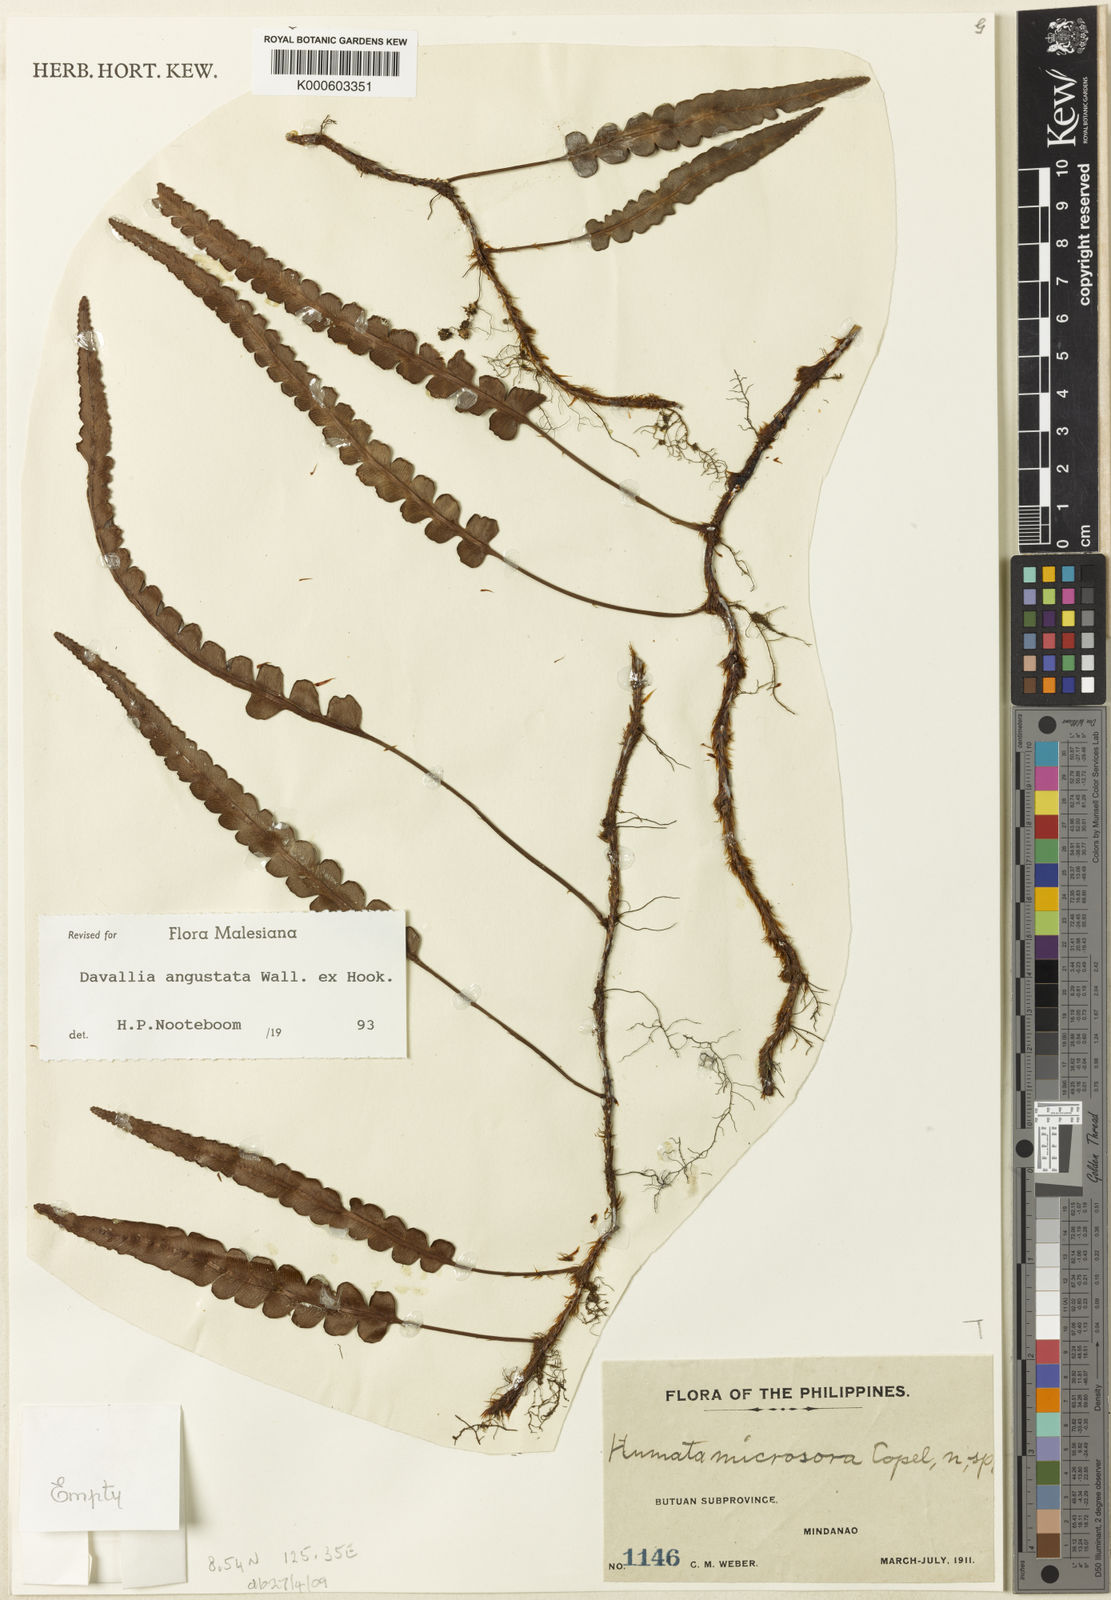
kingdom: Plantae
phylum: Tracheophyta
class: Polypodiopsida
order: Polypodiales
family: Davalliaceae
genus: Davallia
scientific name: Davallia angustata
